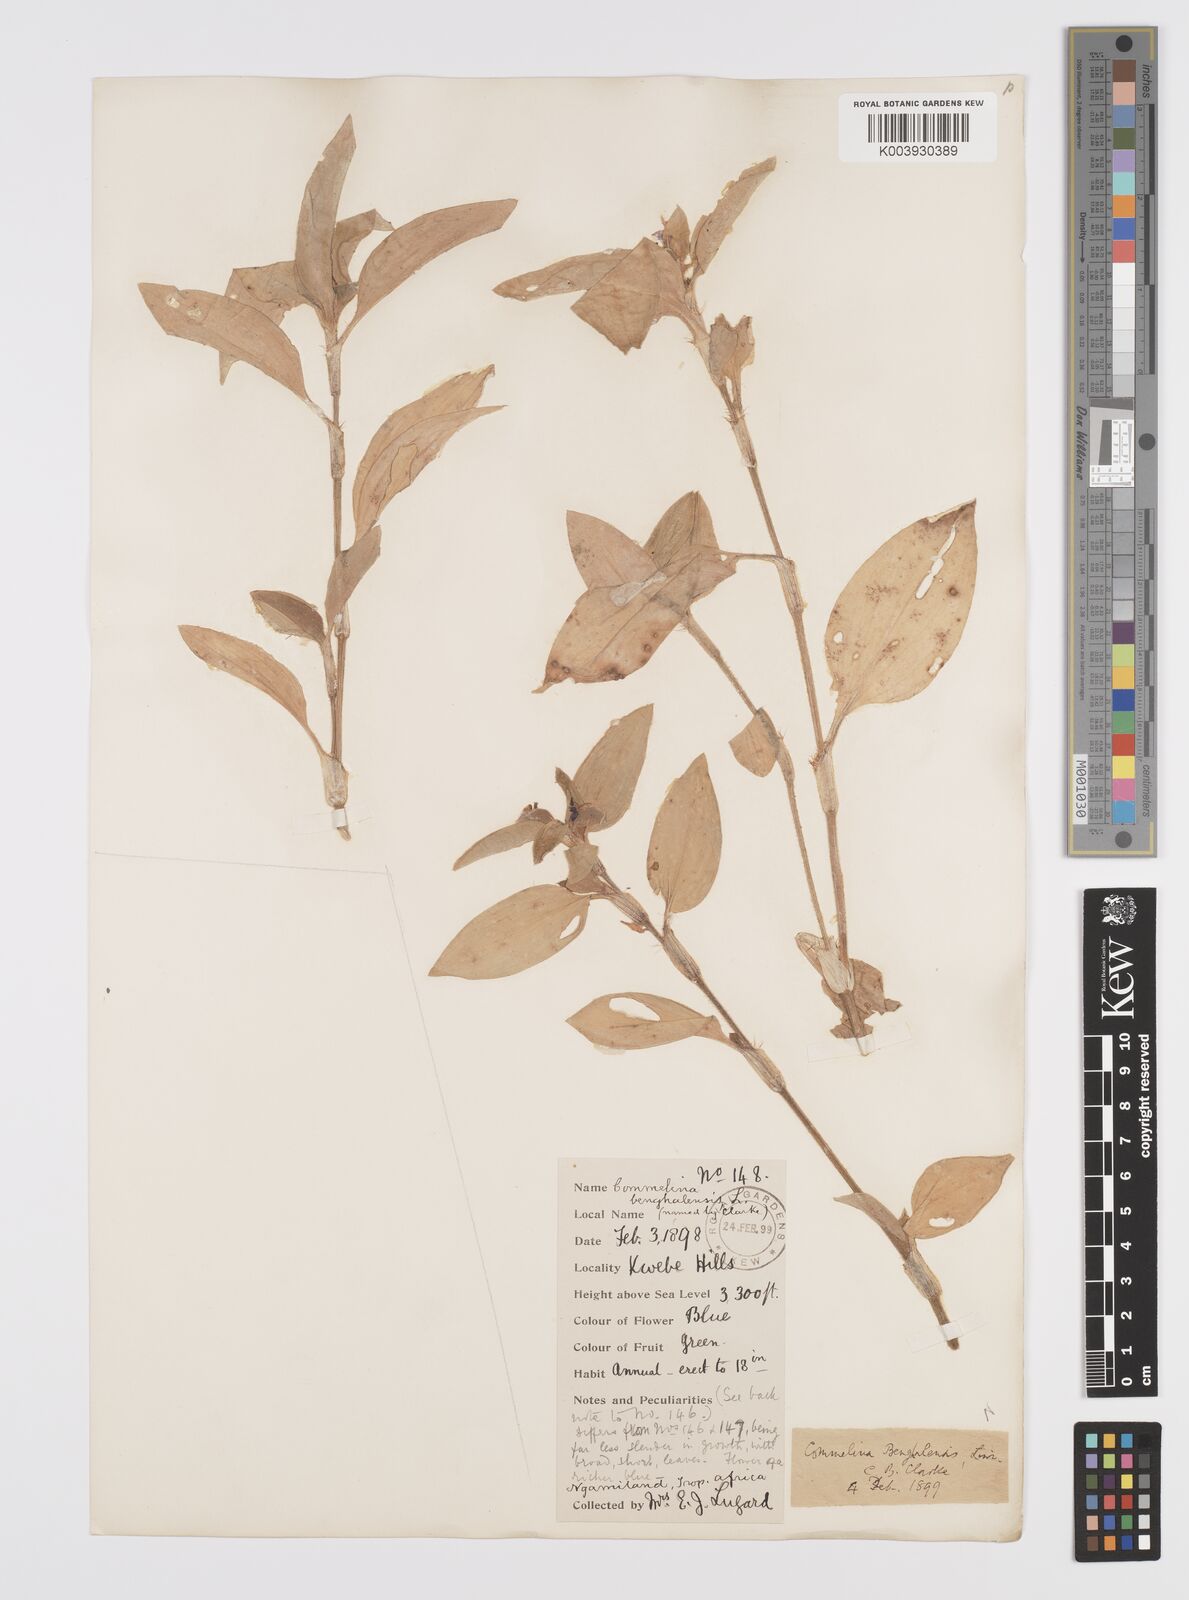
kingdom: Plantae
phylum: Tracheophyta
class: Liliopsida
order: Commelinales
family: Commelinaceae
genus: Commelina
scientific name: Commelina benghalensis
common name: Jio
